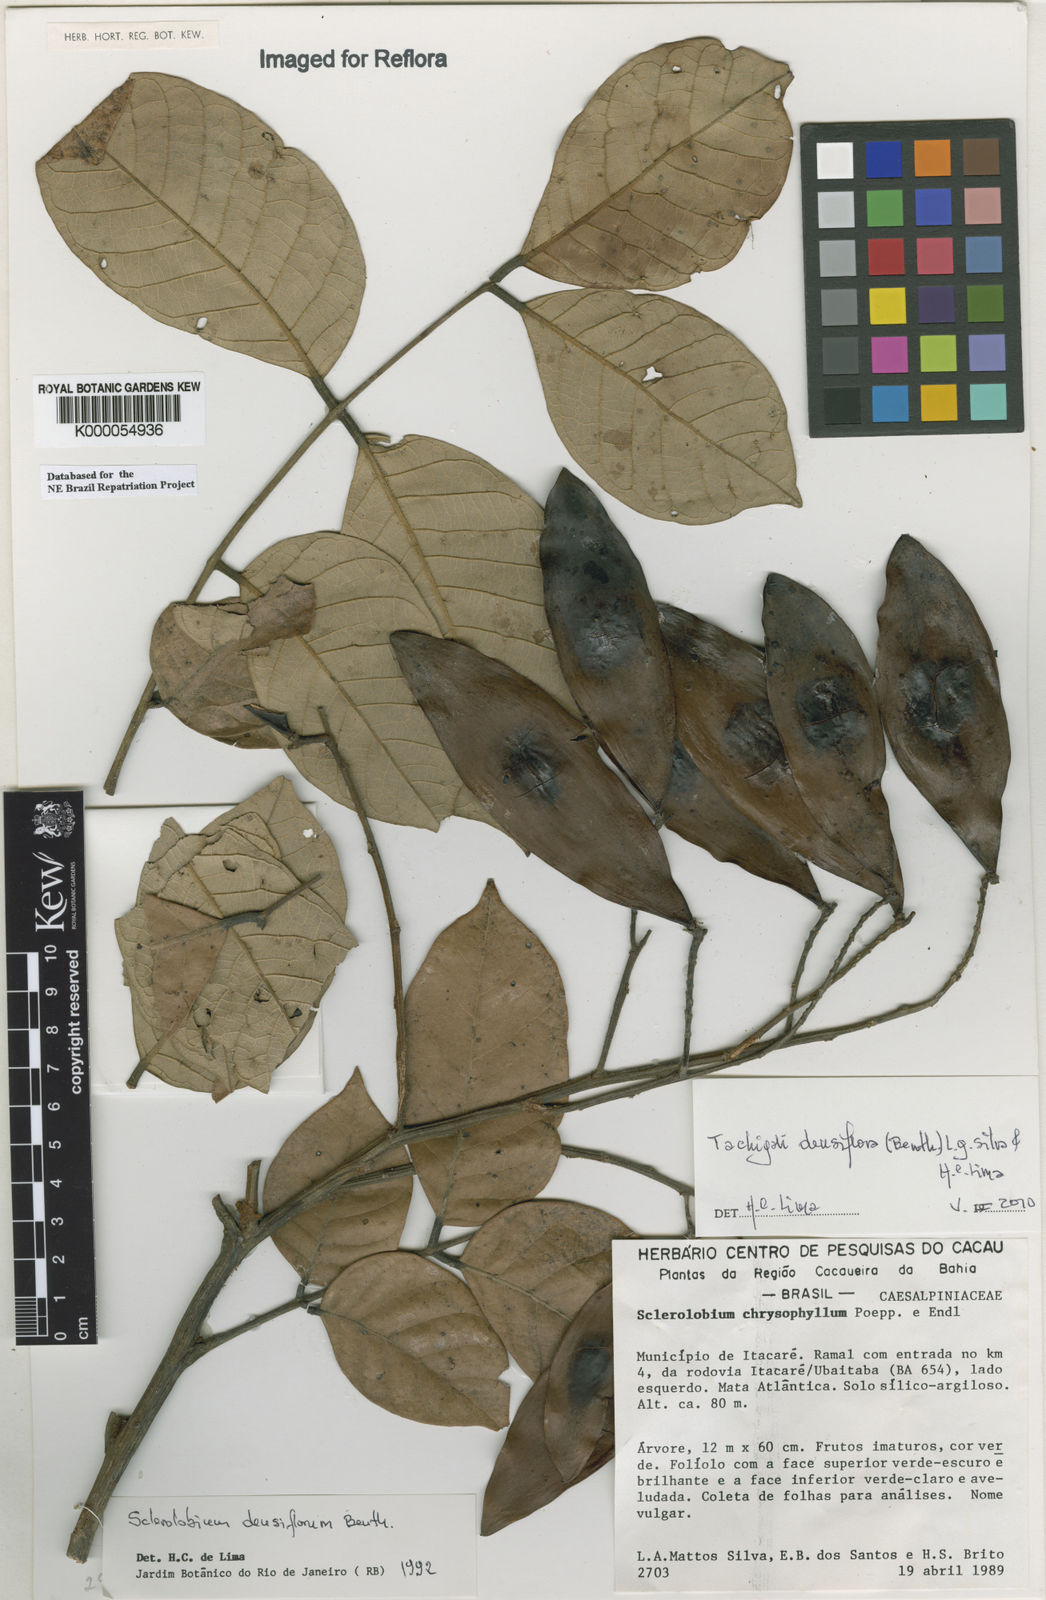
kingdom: Plantae
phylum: Tracheophyta
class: Magnoliopsida
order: Fabales
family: Fabaceae
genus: Tachigali
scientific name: Tachigali densiflora
